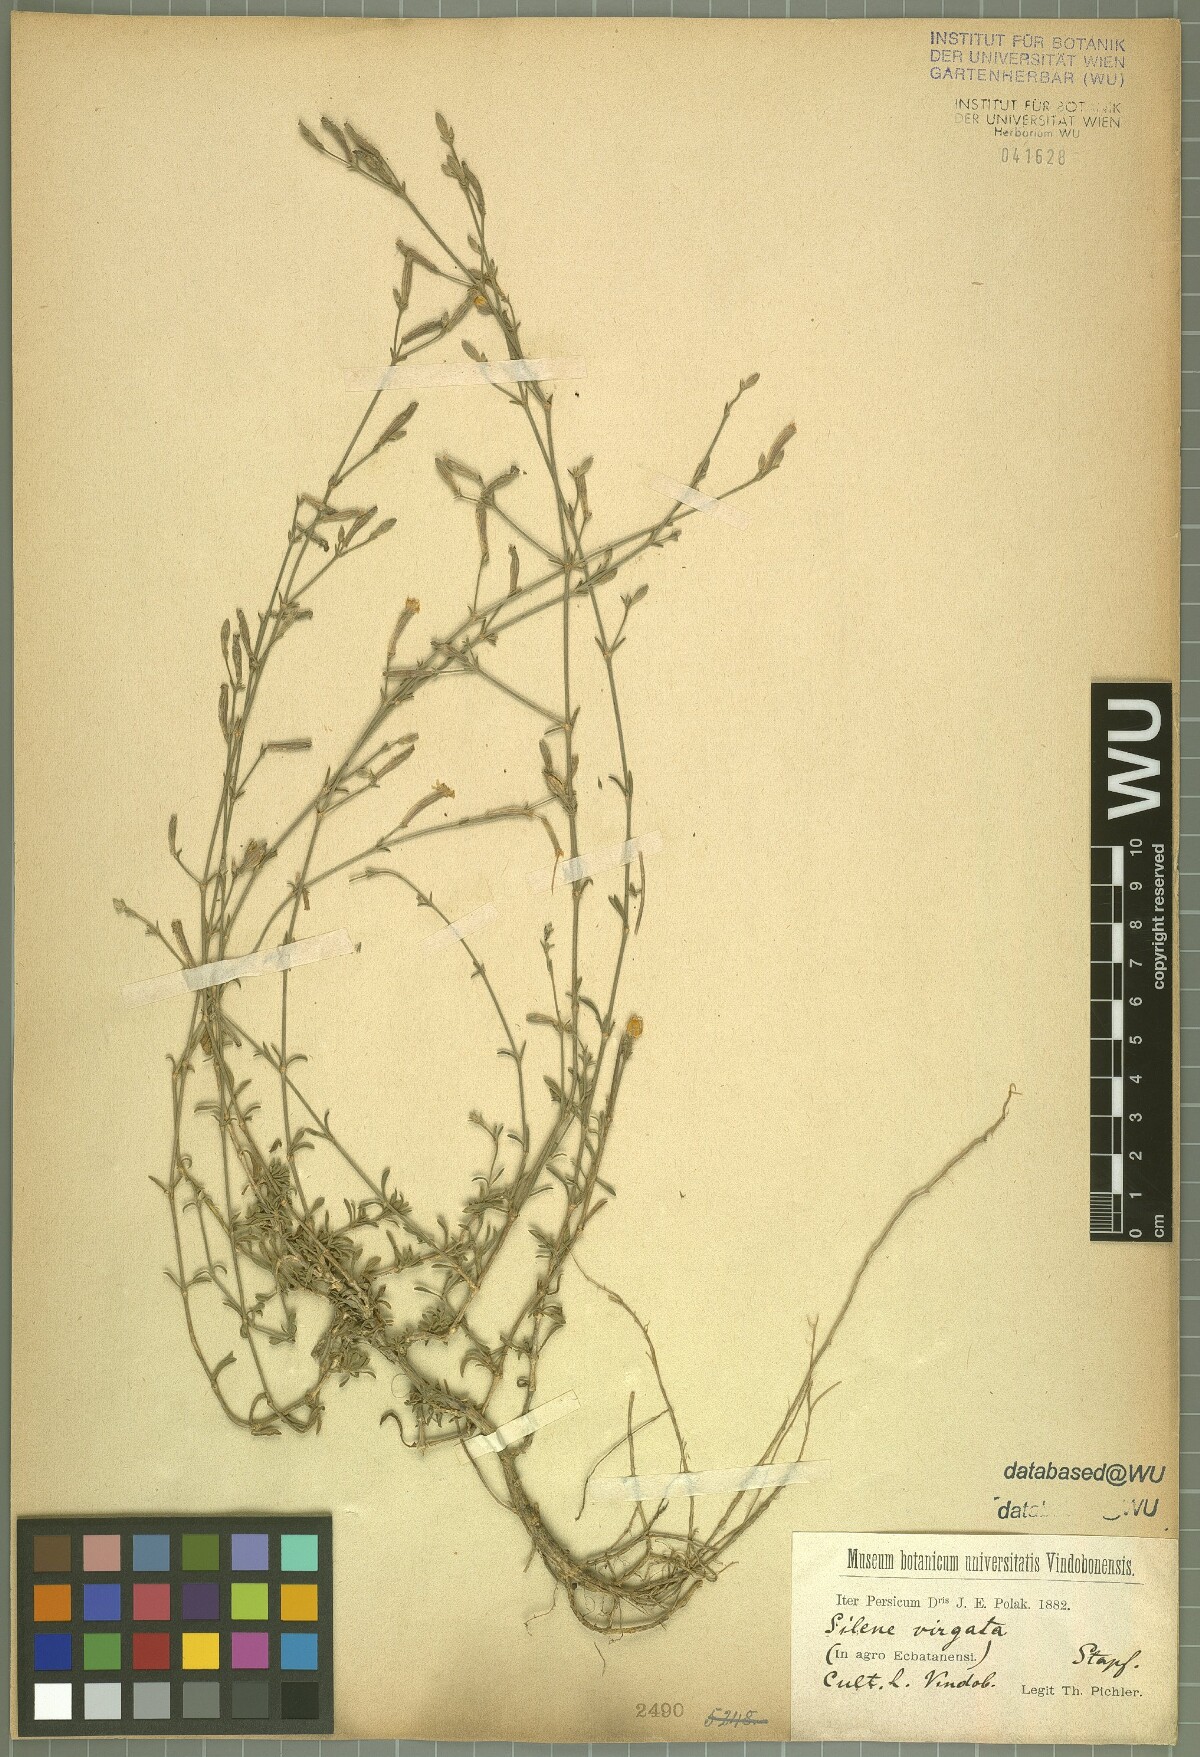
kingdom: Plantae
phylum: Tracheophyta
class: Magnoliopsida
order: Caryophyllales
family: Caryophyllaceae
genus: Silene
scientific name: Silene virgata
